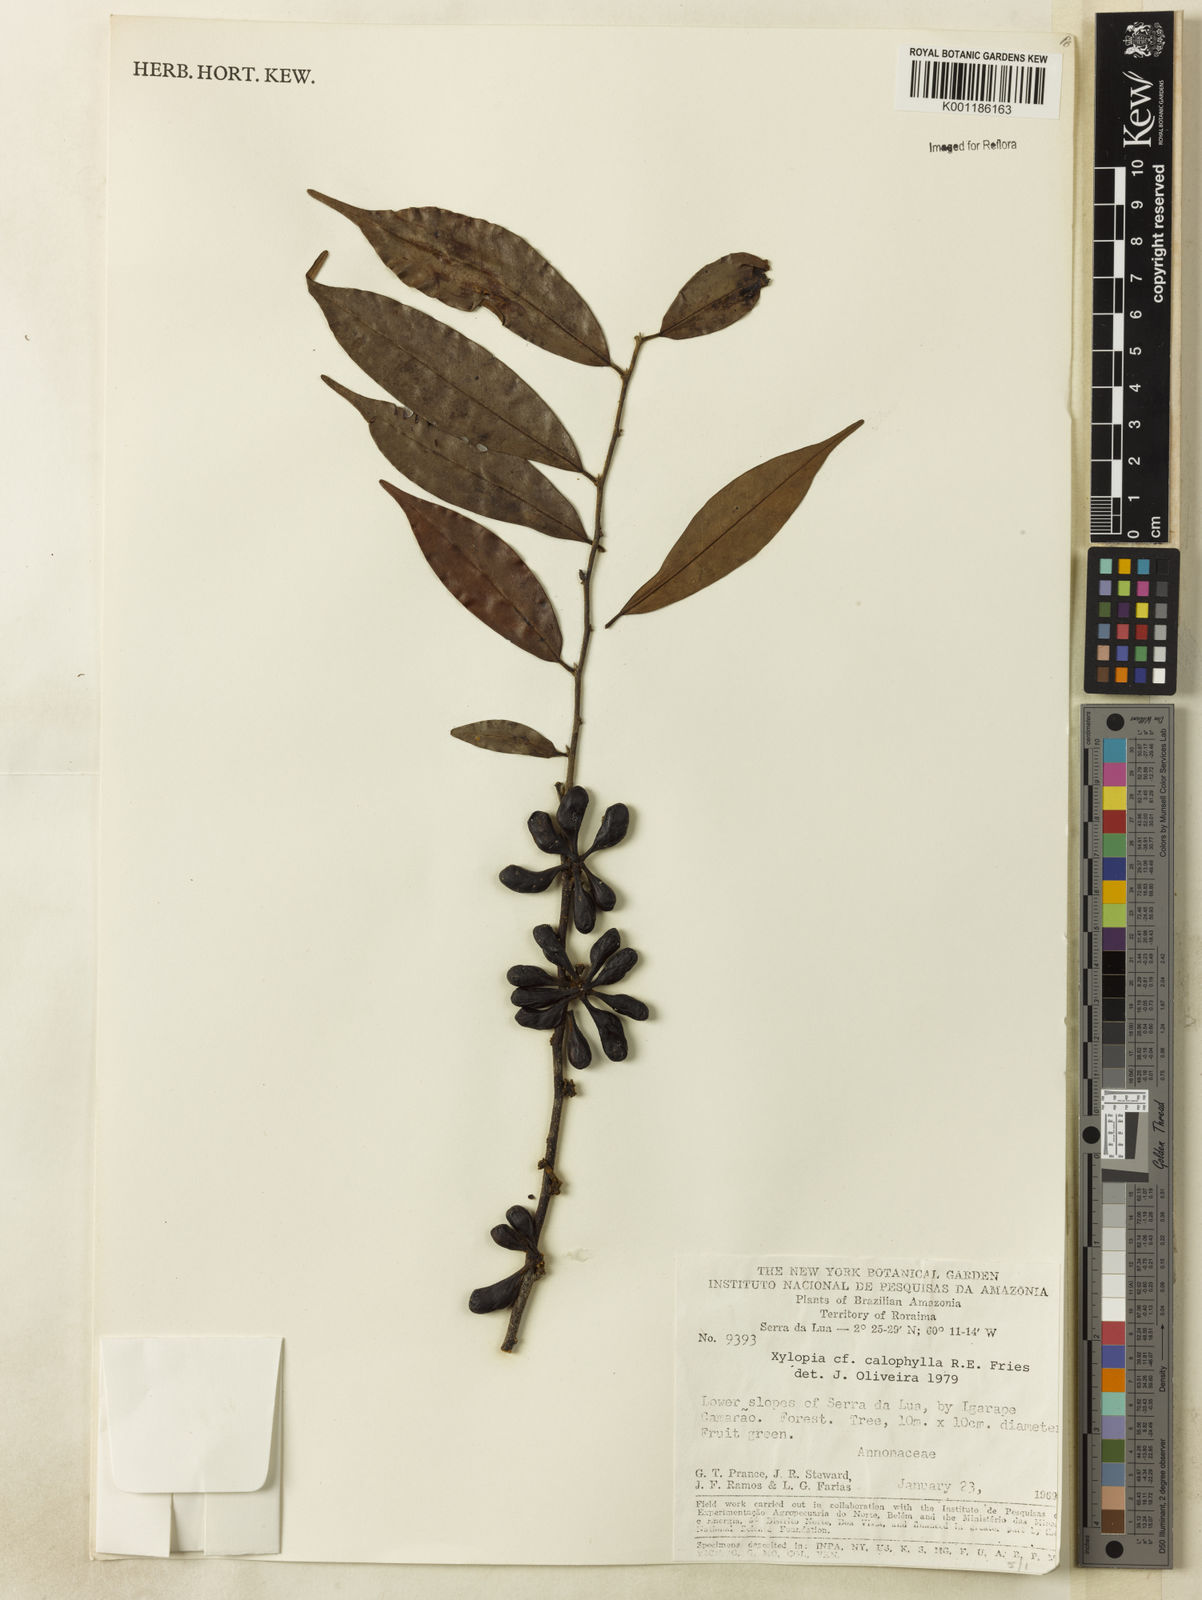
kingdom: Plantae
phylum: Tracheophyta
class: Magnoliopsida
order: Magnoliales
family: Annonaceae
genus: Xylopia
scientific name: Xylopia calophylla
